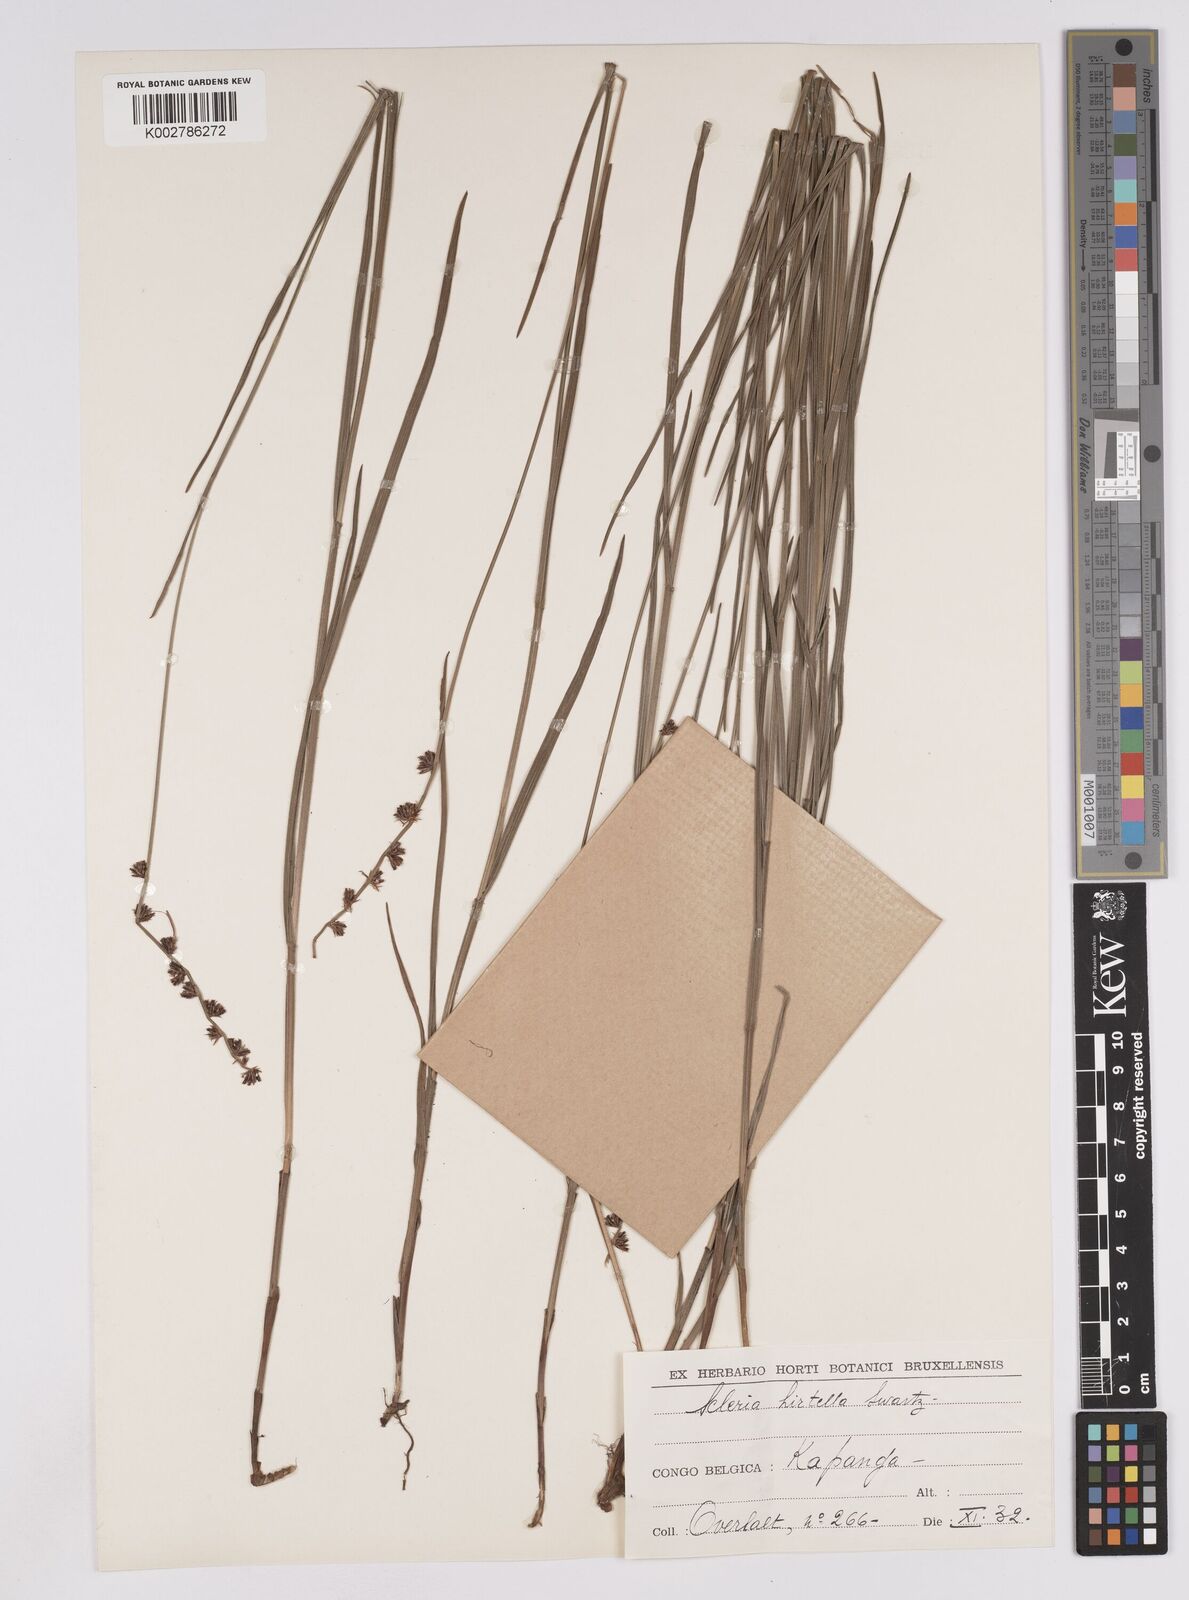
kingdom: Plantae
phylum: Tracheophyta
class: Liliopsida
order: Poales
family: Cyperaceae
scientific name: Cyperaceae
